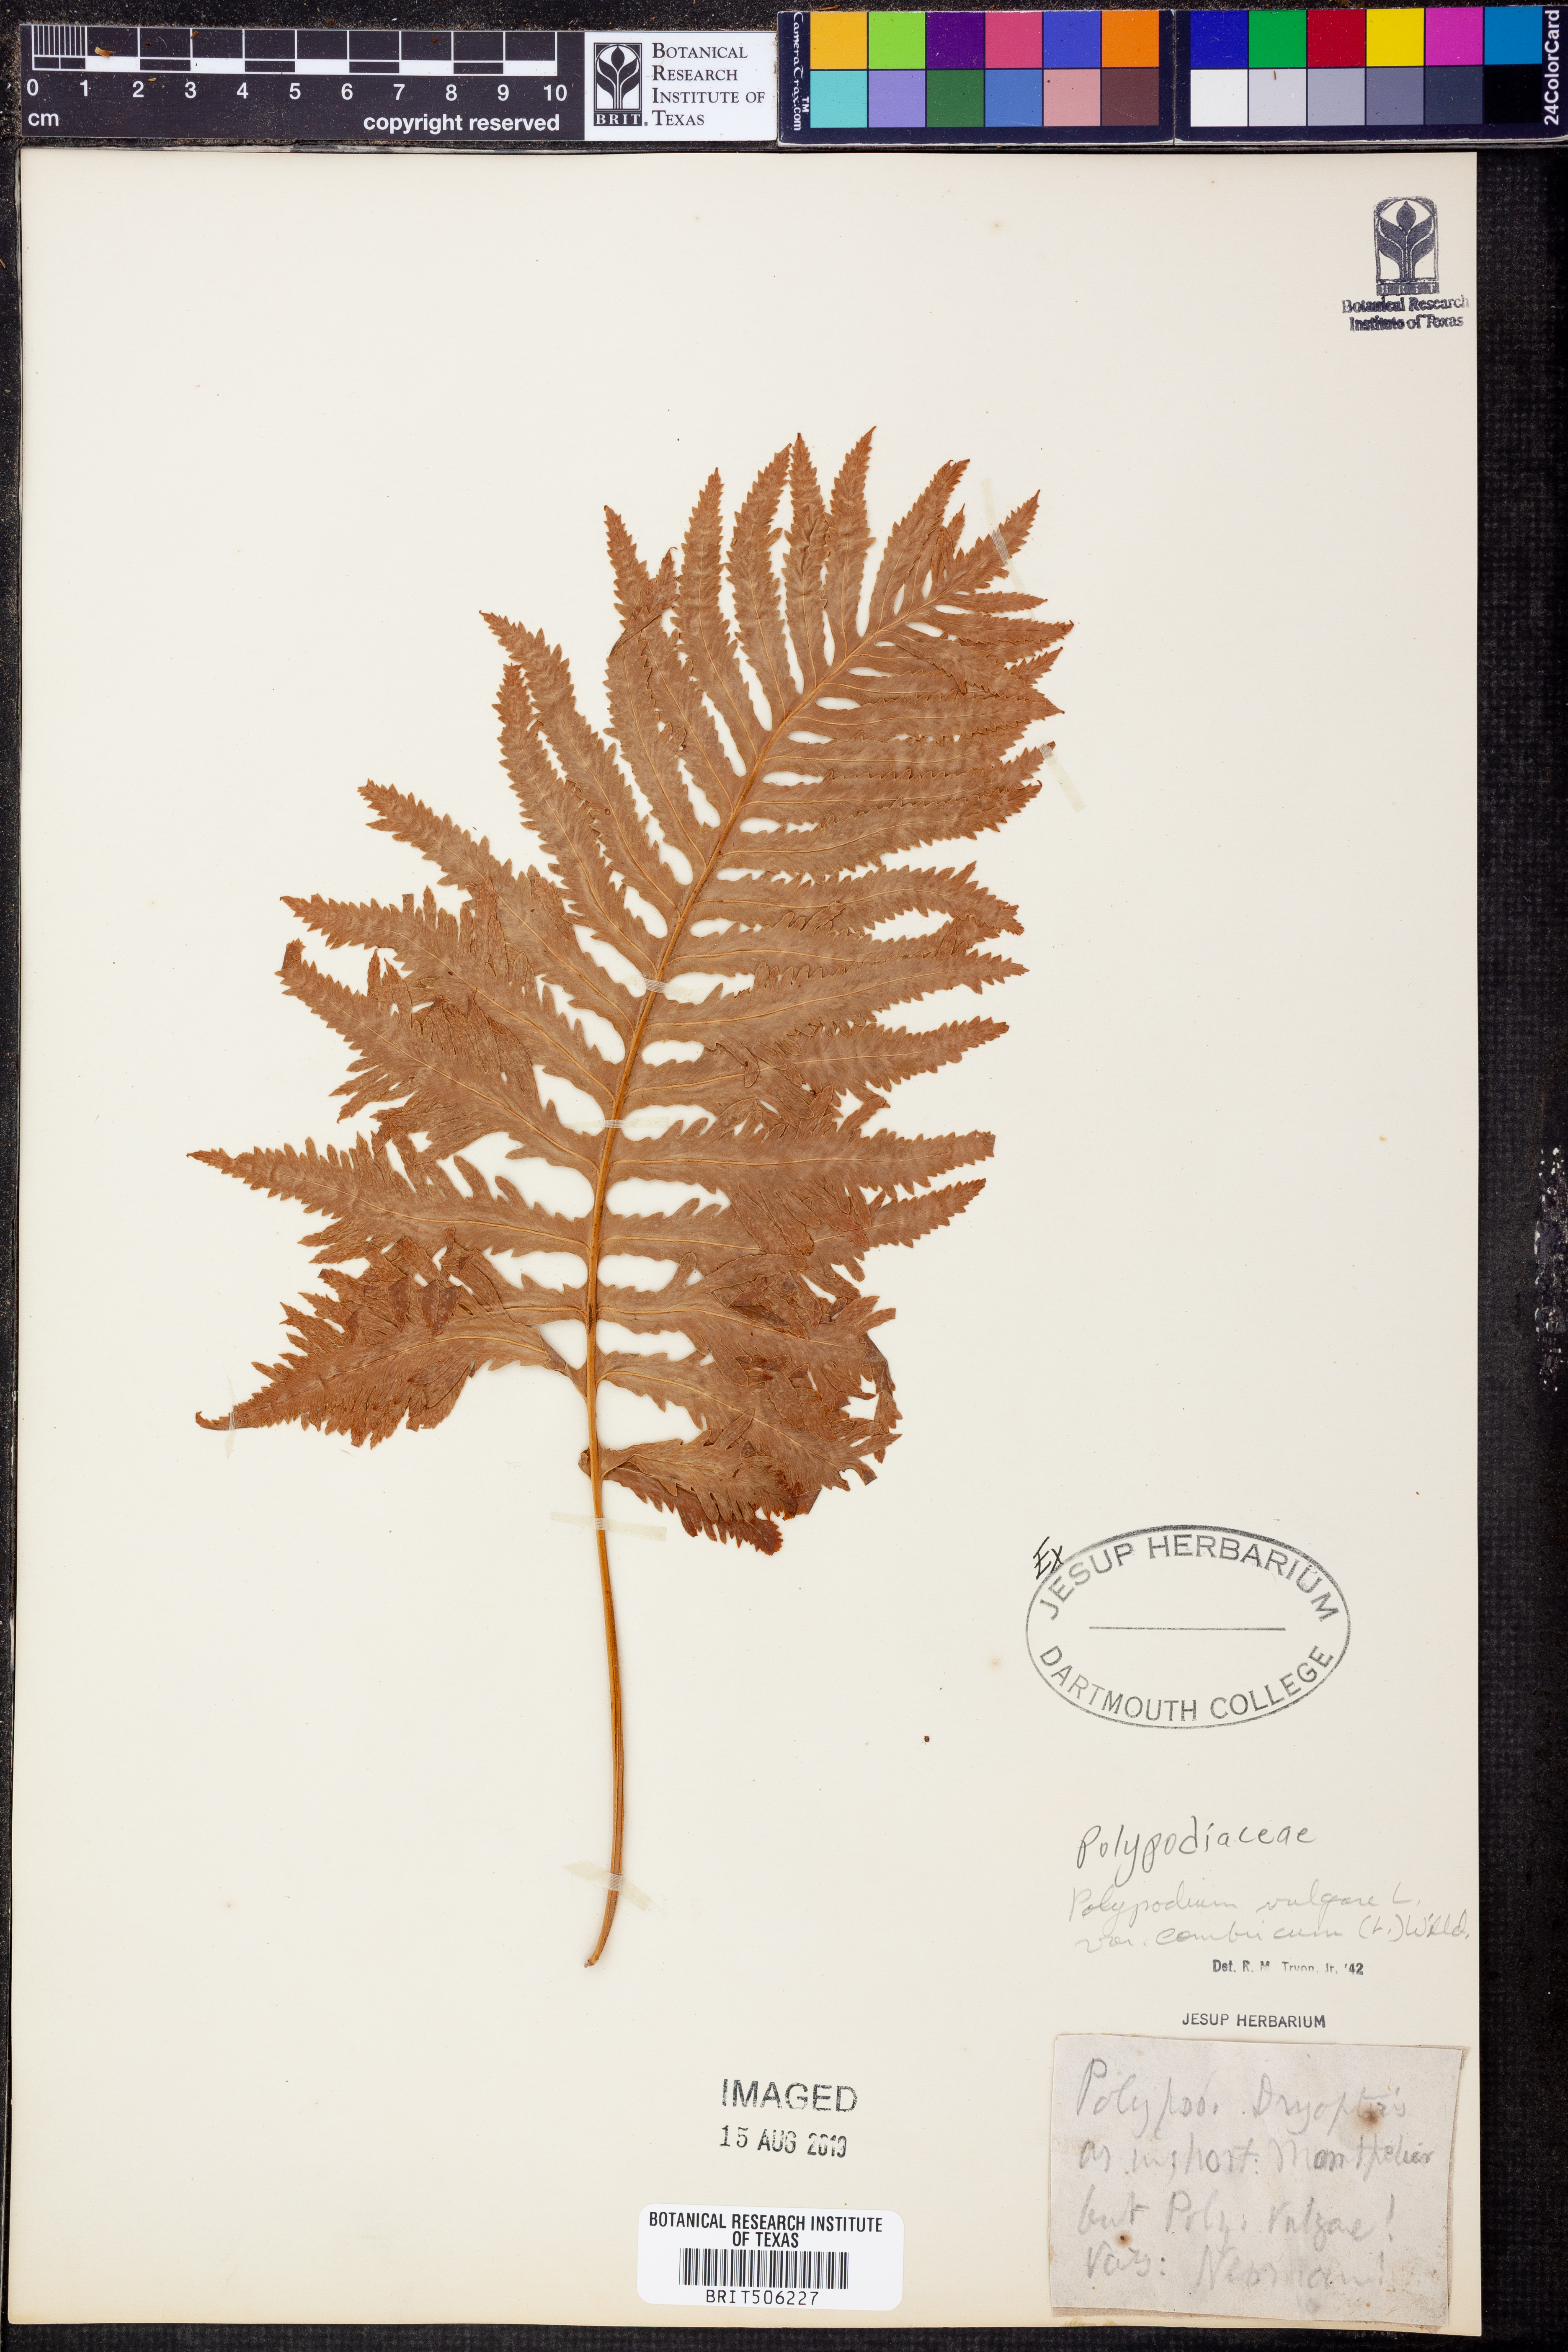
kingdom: Plantae
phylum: Tracheophyta
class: Polypodiopsida
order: Polypodiales
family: Polypodiaceae
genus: Polypodium
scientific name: Polypodium cambricum
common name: Southern polypody
